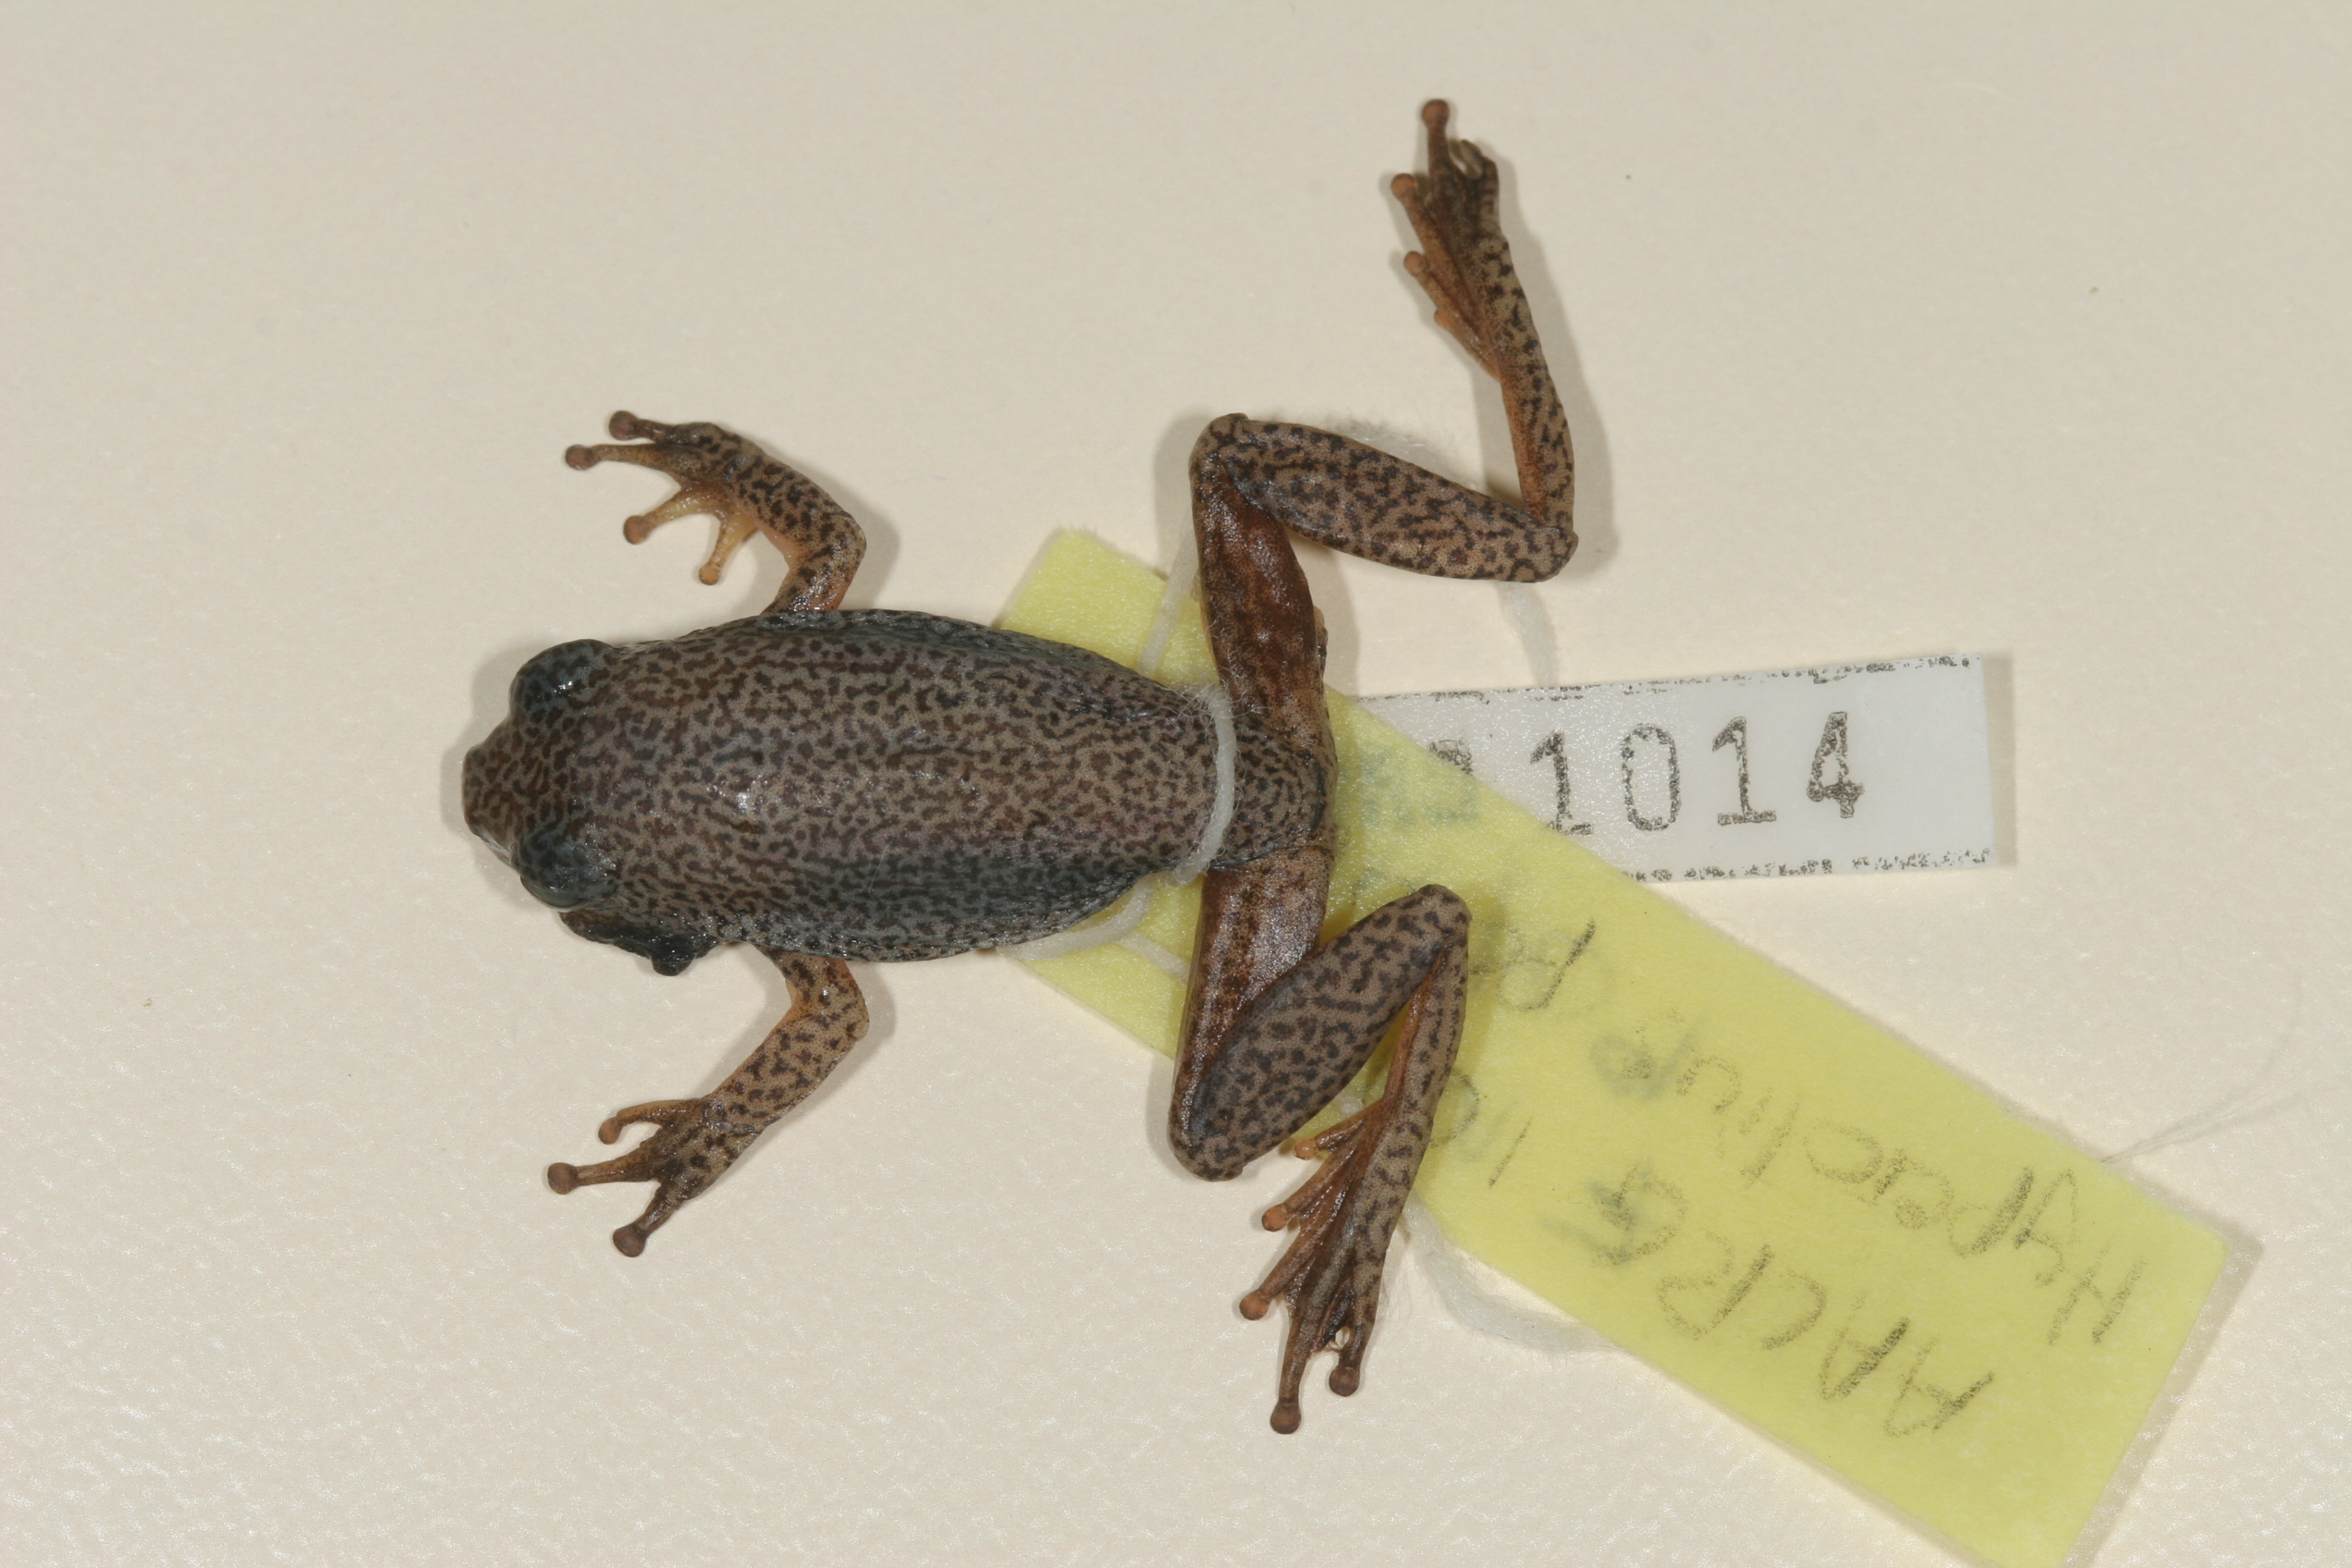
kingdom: Animalia
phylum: Chordata
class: Amphibia
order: Anura
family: Hyperoliidae
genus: Hyperolius
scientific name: Hyperolius parallelus
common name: Angolan reed frog
